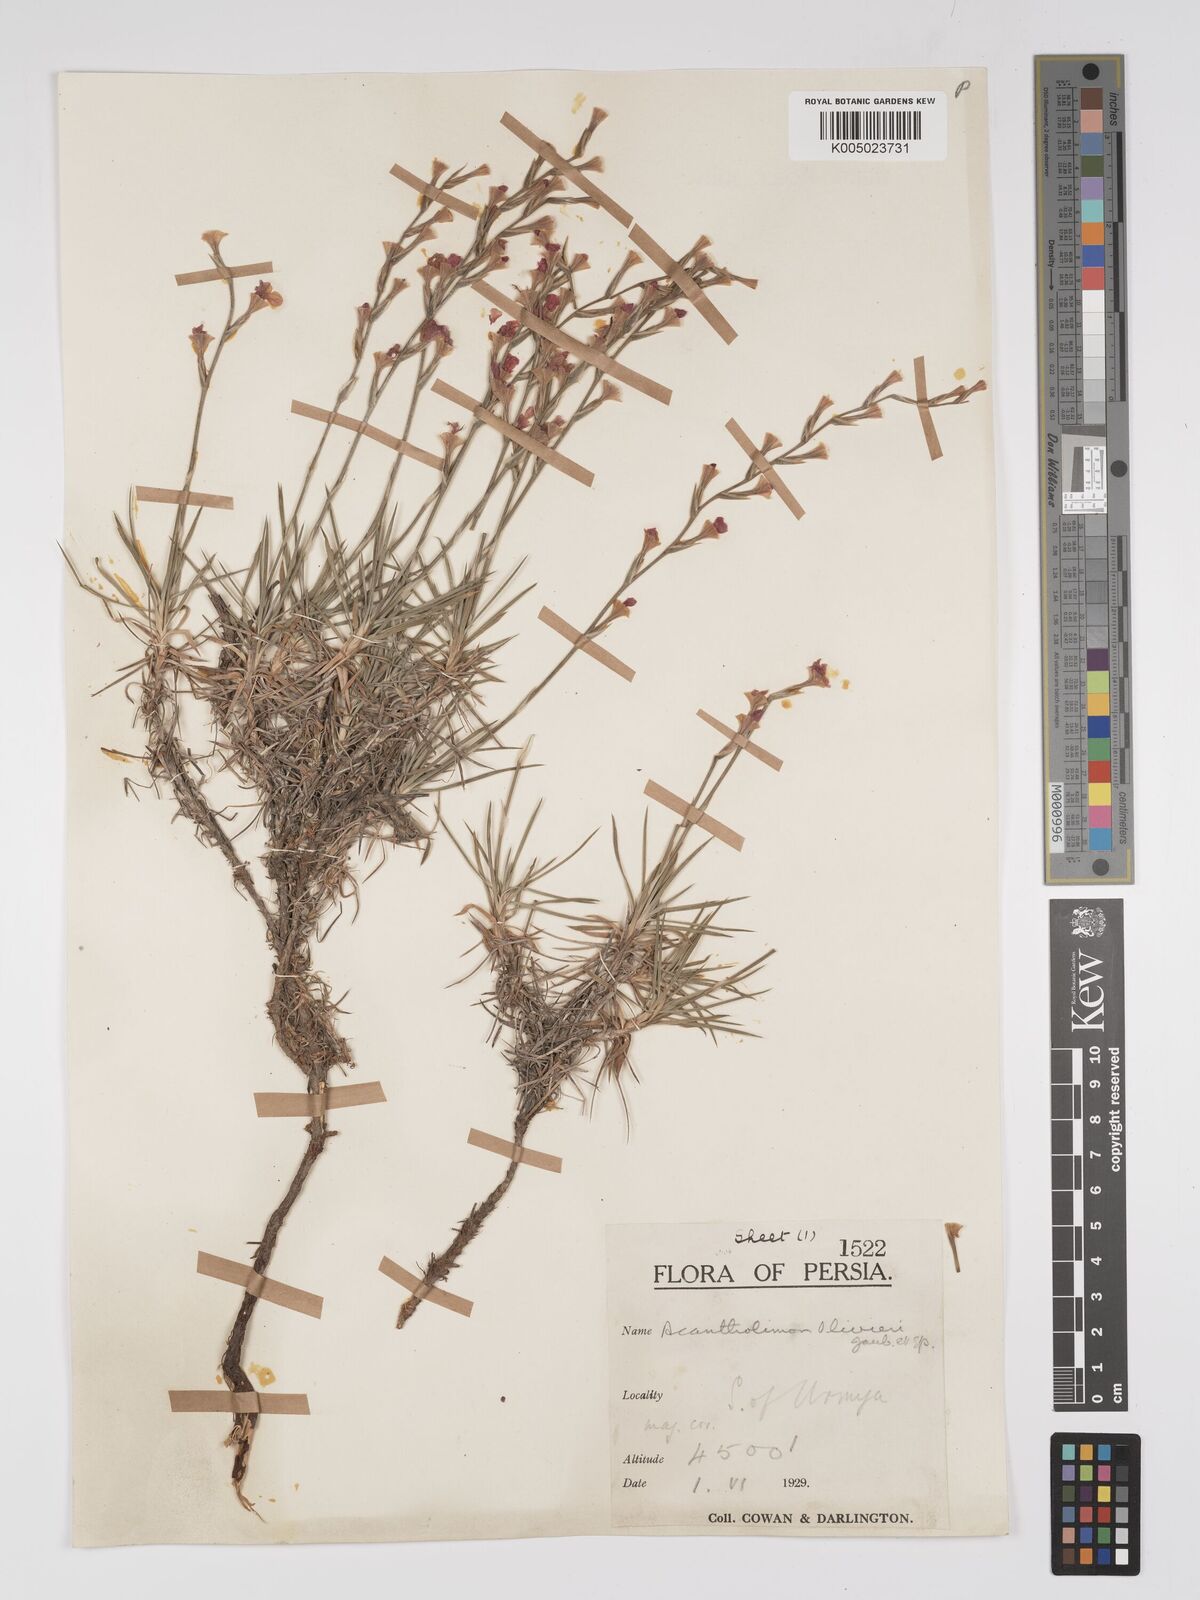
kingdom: Plantae
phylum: Tracheophyta
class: Magnoliopsida
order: Caryophyllales
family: Plumbaginaceae
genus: Acantholimon
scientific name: Acantholimon oliveri
